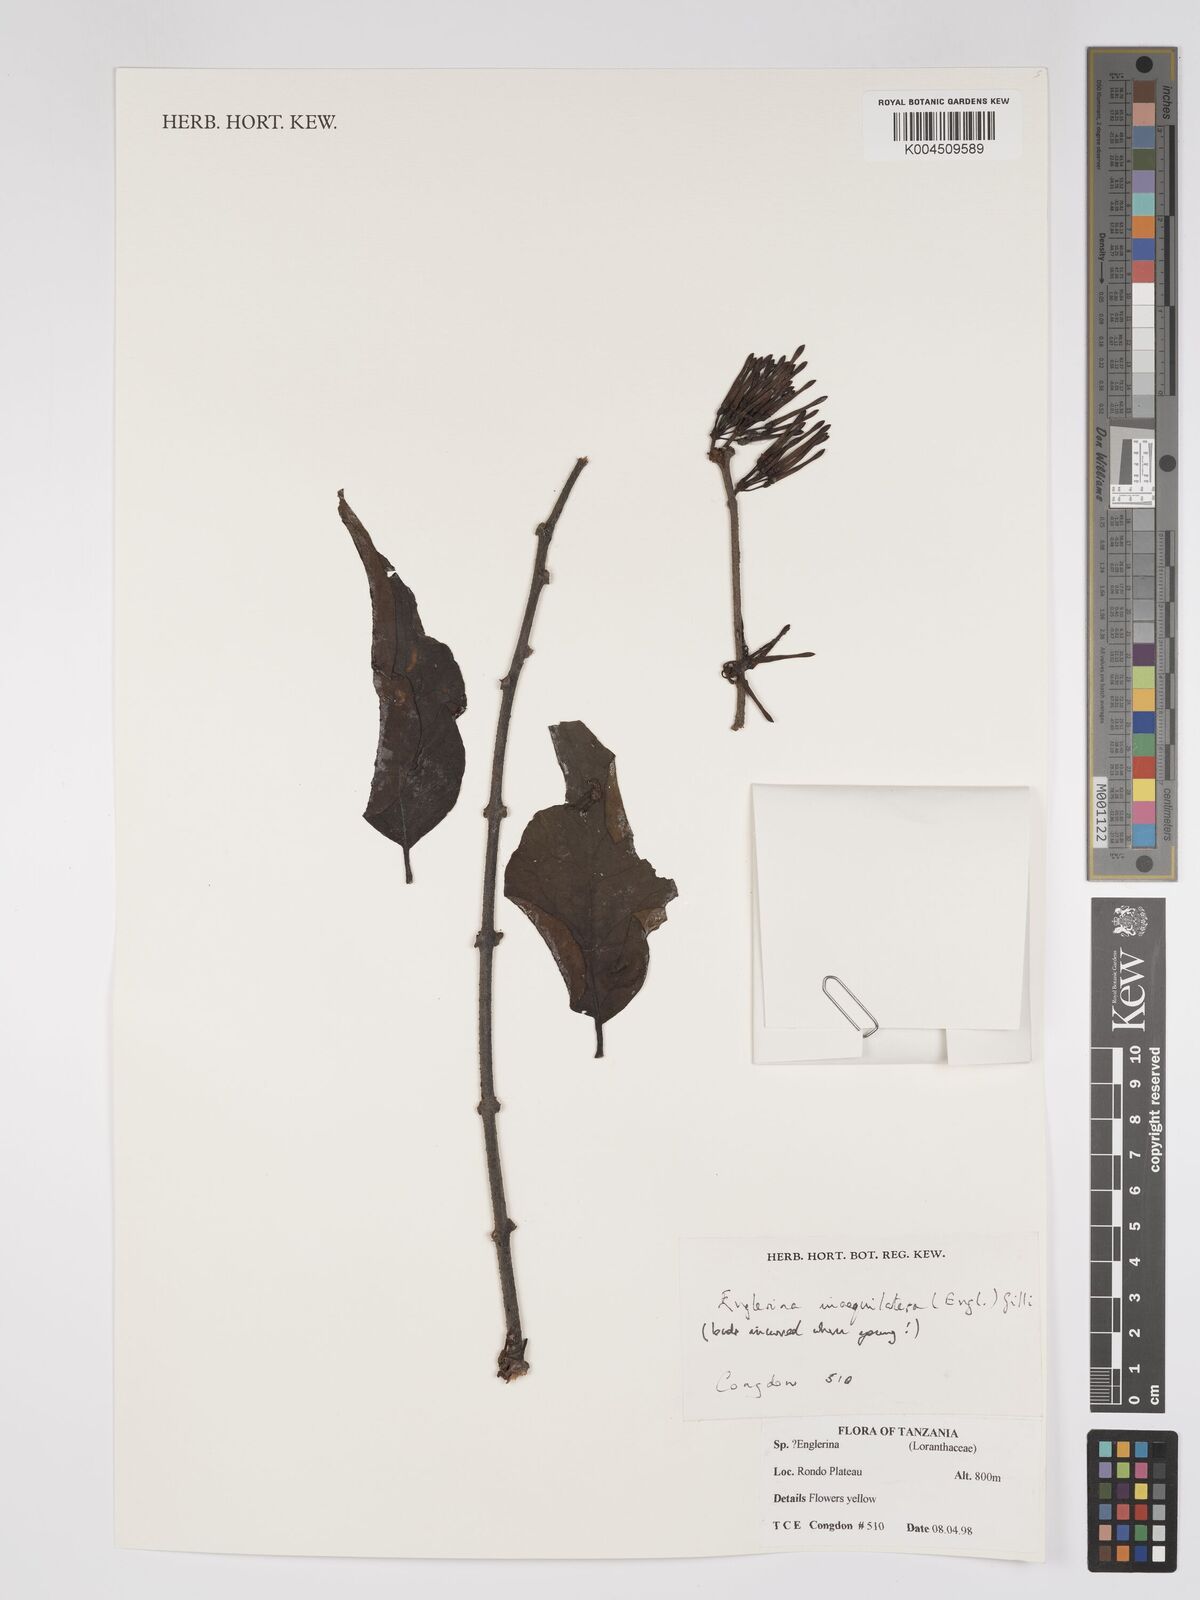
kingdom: Plantae
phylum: Tracheophyta
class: Magnoliopsida
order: Santalales
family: Loranthaceae
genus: Englerina
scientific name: Englerina inaequilatera
